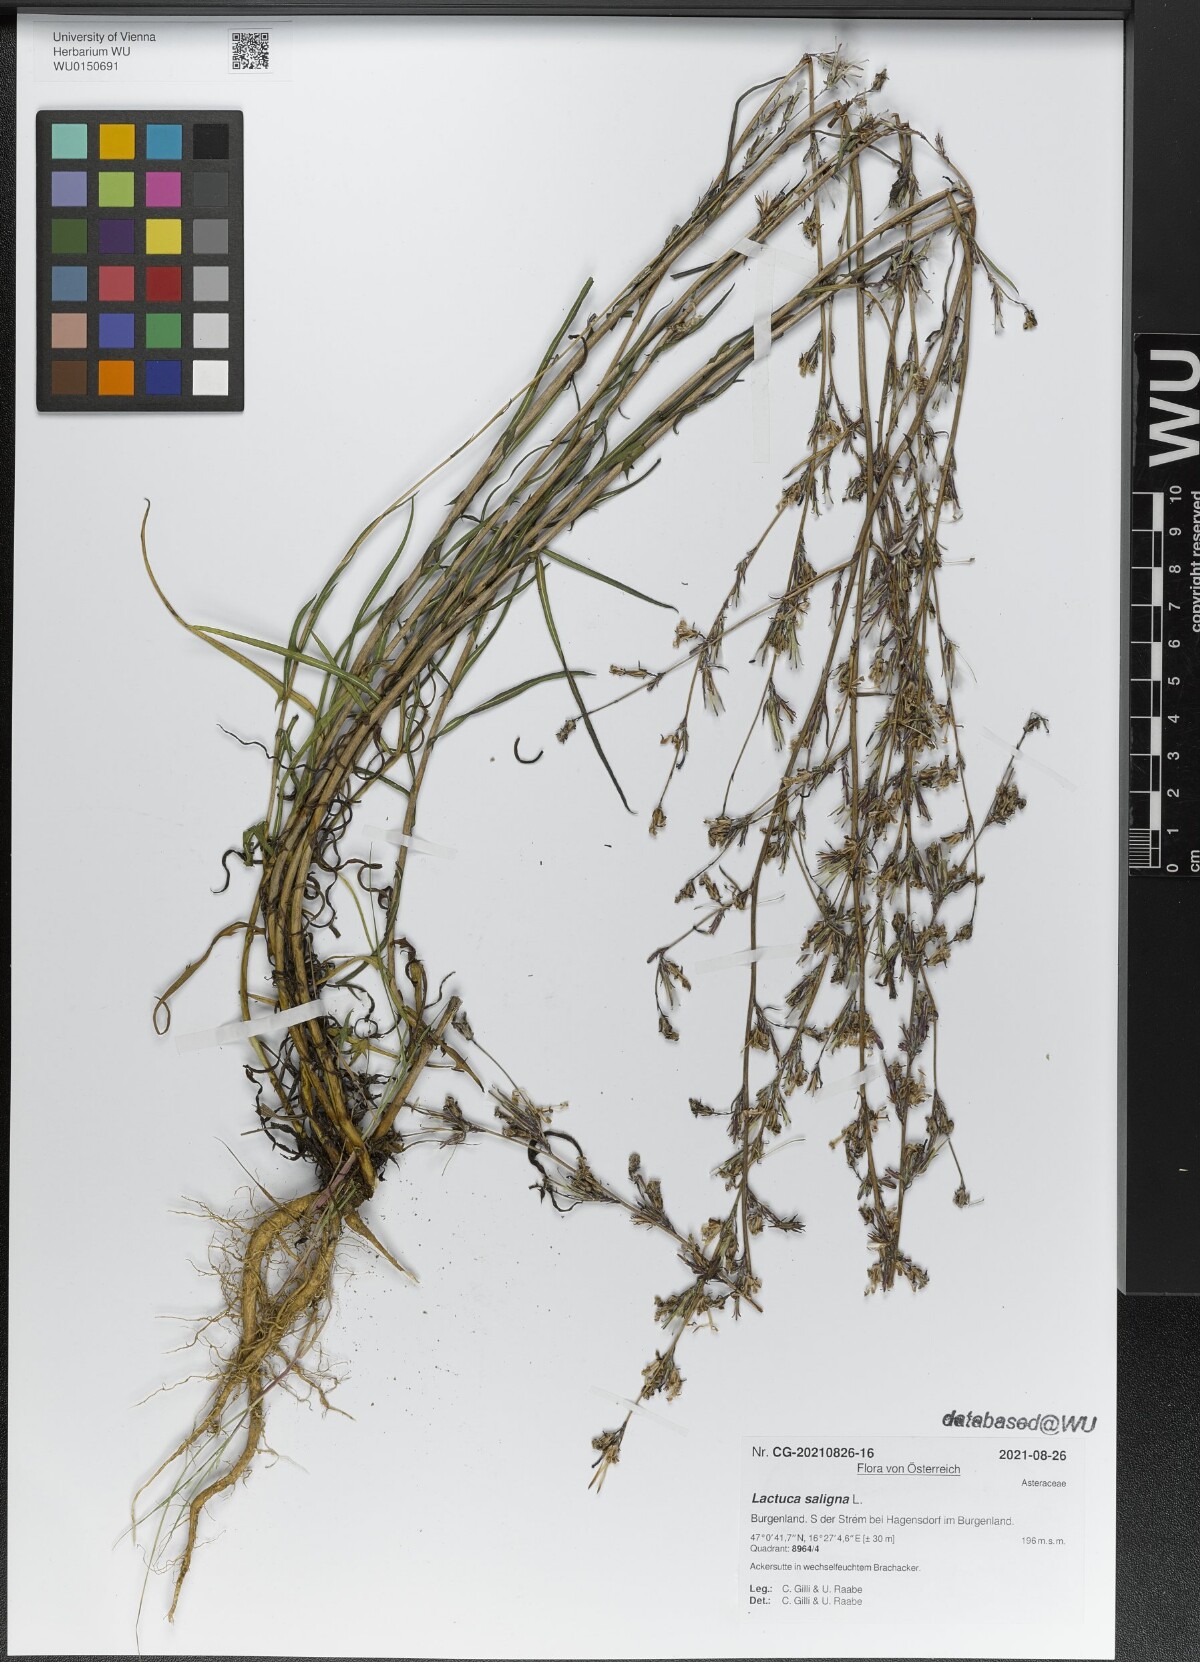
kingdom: Plantae
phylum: Tracheophyta
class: Magnoliopsida
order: Asterales
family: Asteraceae
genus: Lactuca
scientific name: Lactuca saligna
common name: Wild lettuce
